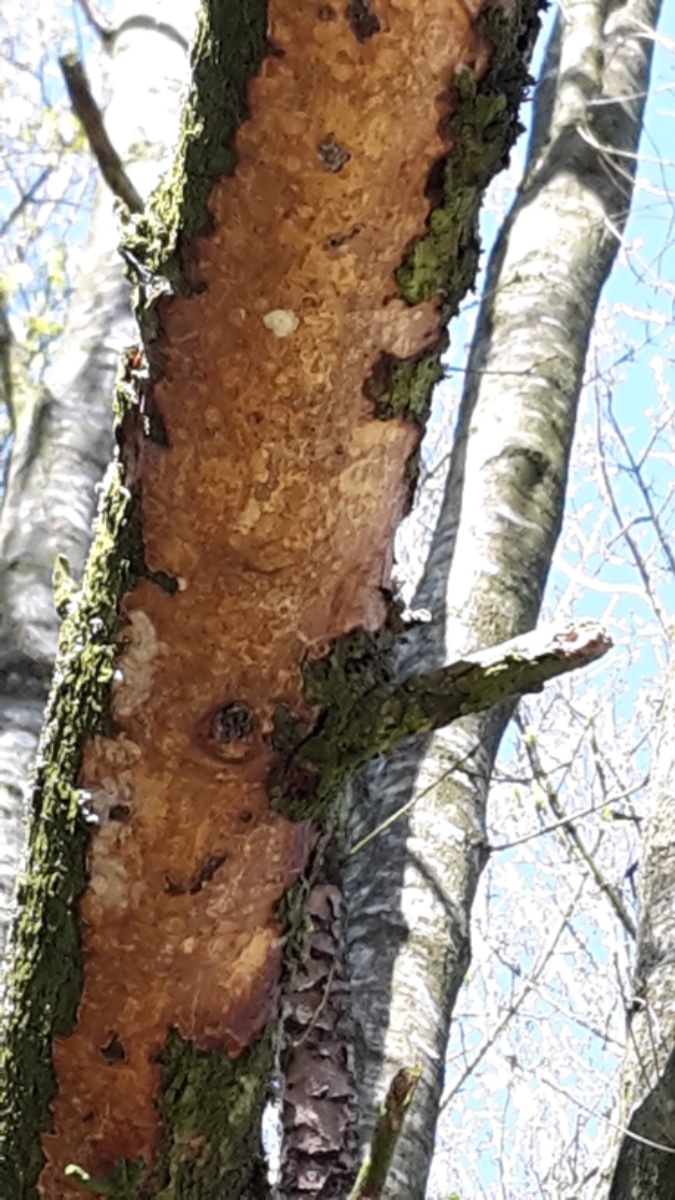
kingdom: Fungi
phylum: Basidiomycota
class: Agaricomycetes
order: Corticiales
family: Vuilleminiaceae
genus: Vuilleminia
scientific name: Vuilleminia comedens
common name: almindelig barksprænger
